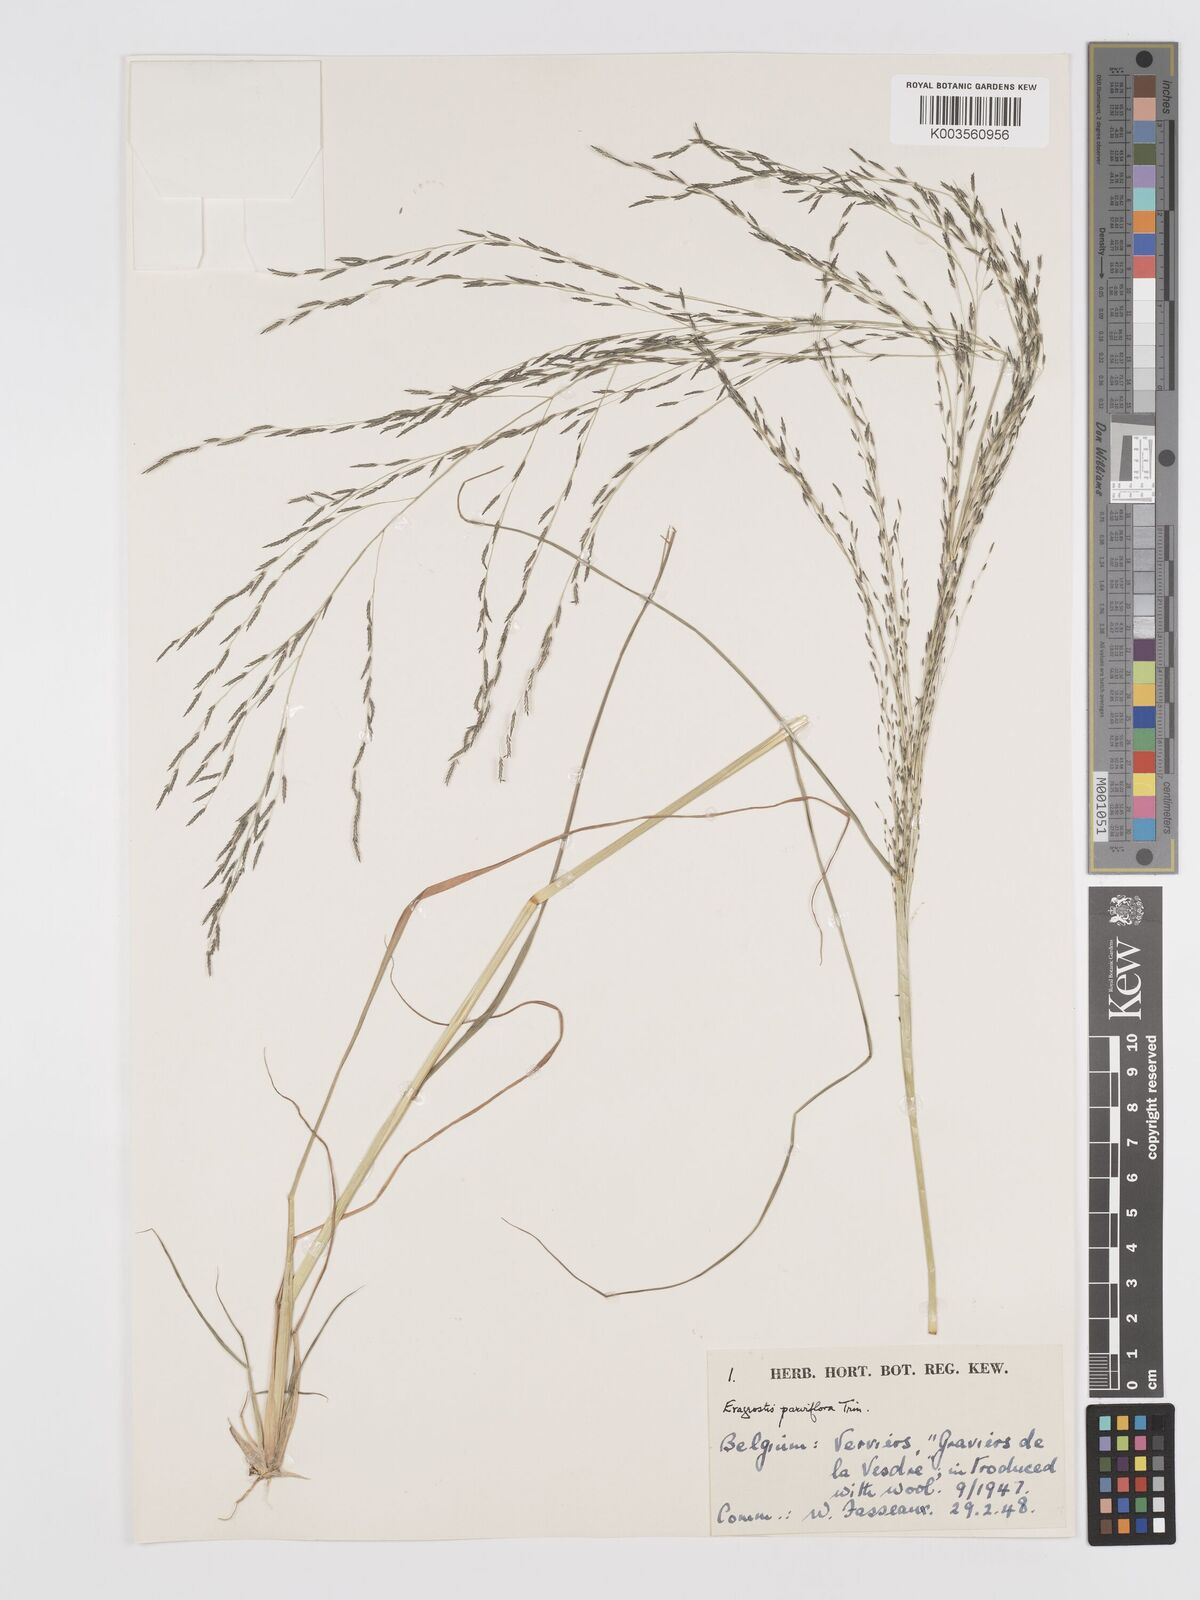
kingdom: Plantae
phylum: Tracheophyta
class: Liliopsida
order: Poales
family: Poaceae
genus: Eragrostis
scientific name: Eragrostis parviflora
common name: Weeping love-grass
